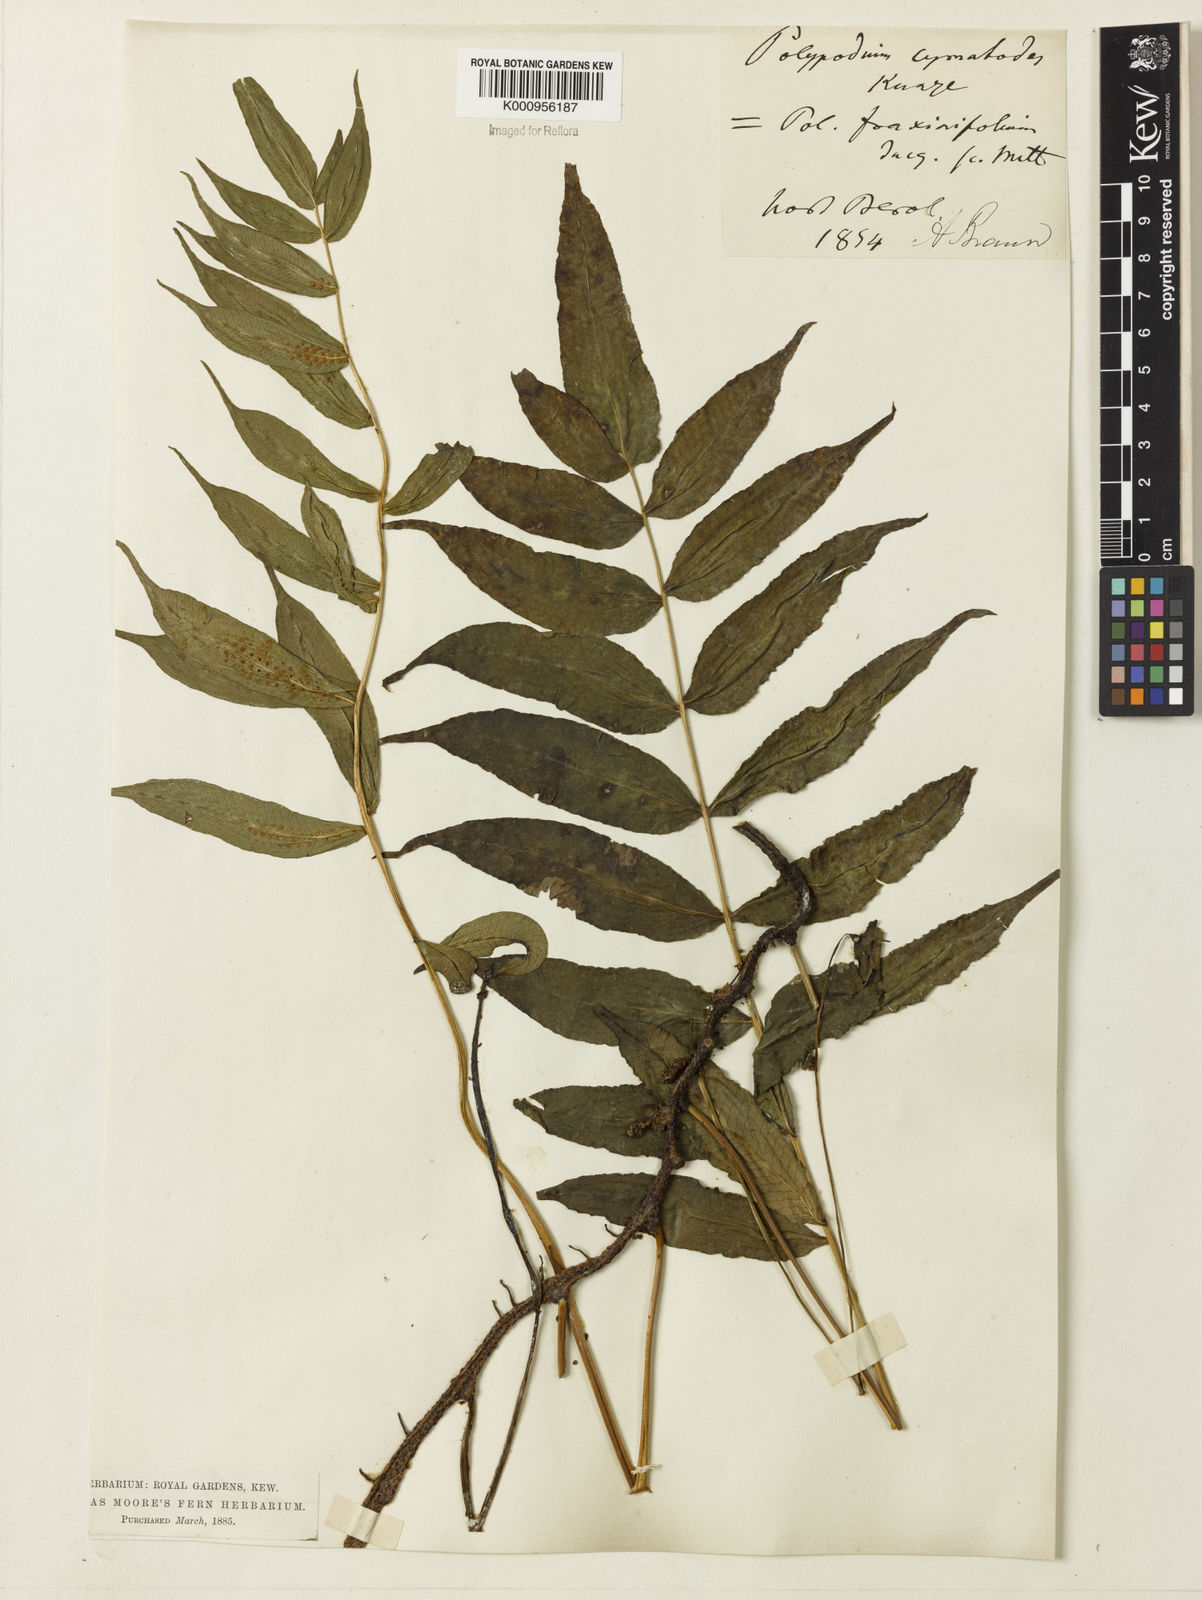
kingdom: Plantae
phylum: Tracheophyta
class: Polypodiopsida
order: Polypodiales
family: Polypodiaceae
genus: Serpocaulon
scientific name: Serpocaulon fraxinifolium
